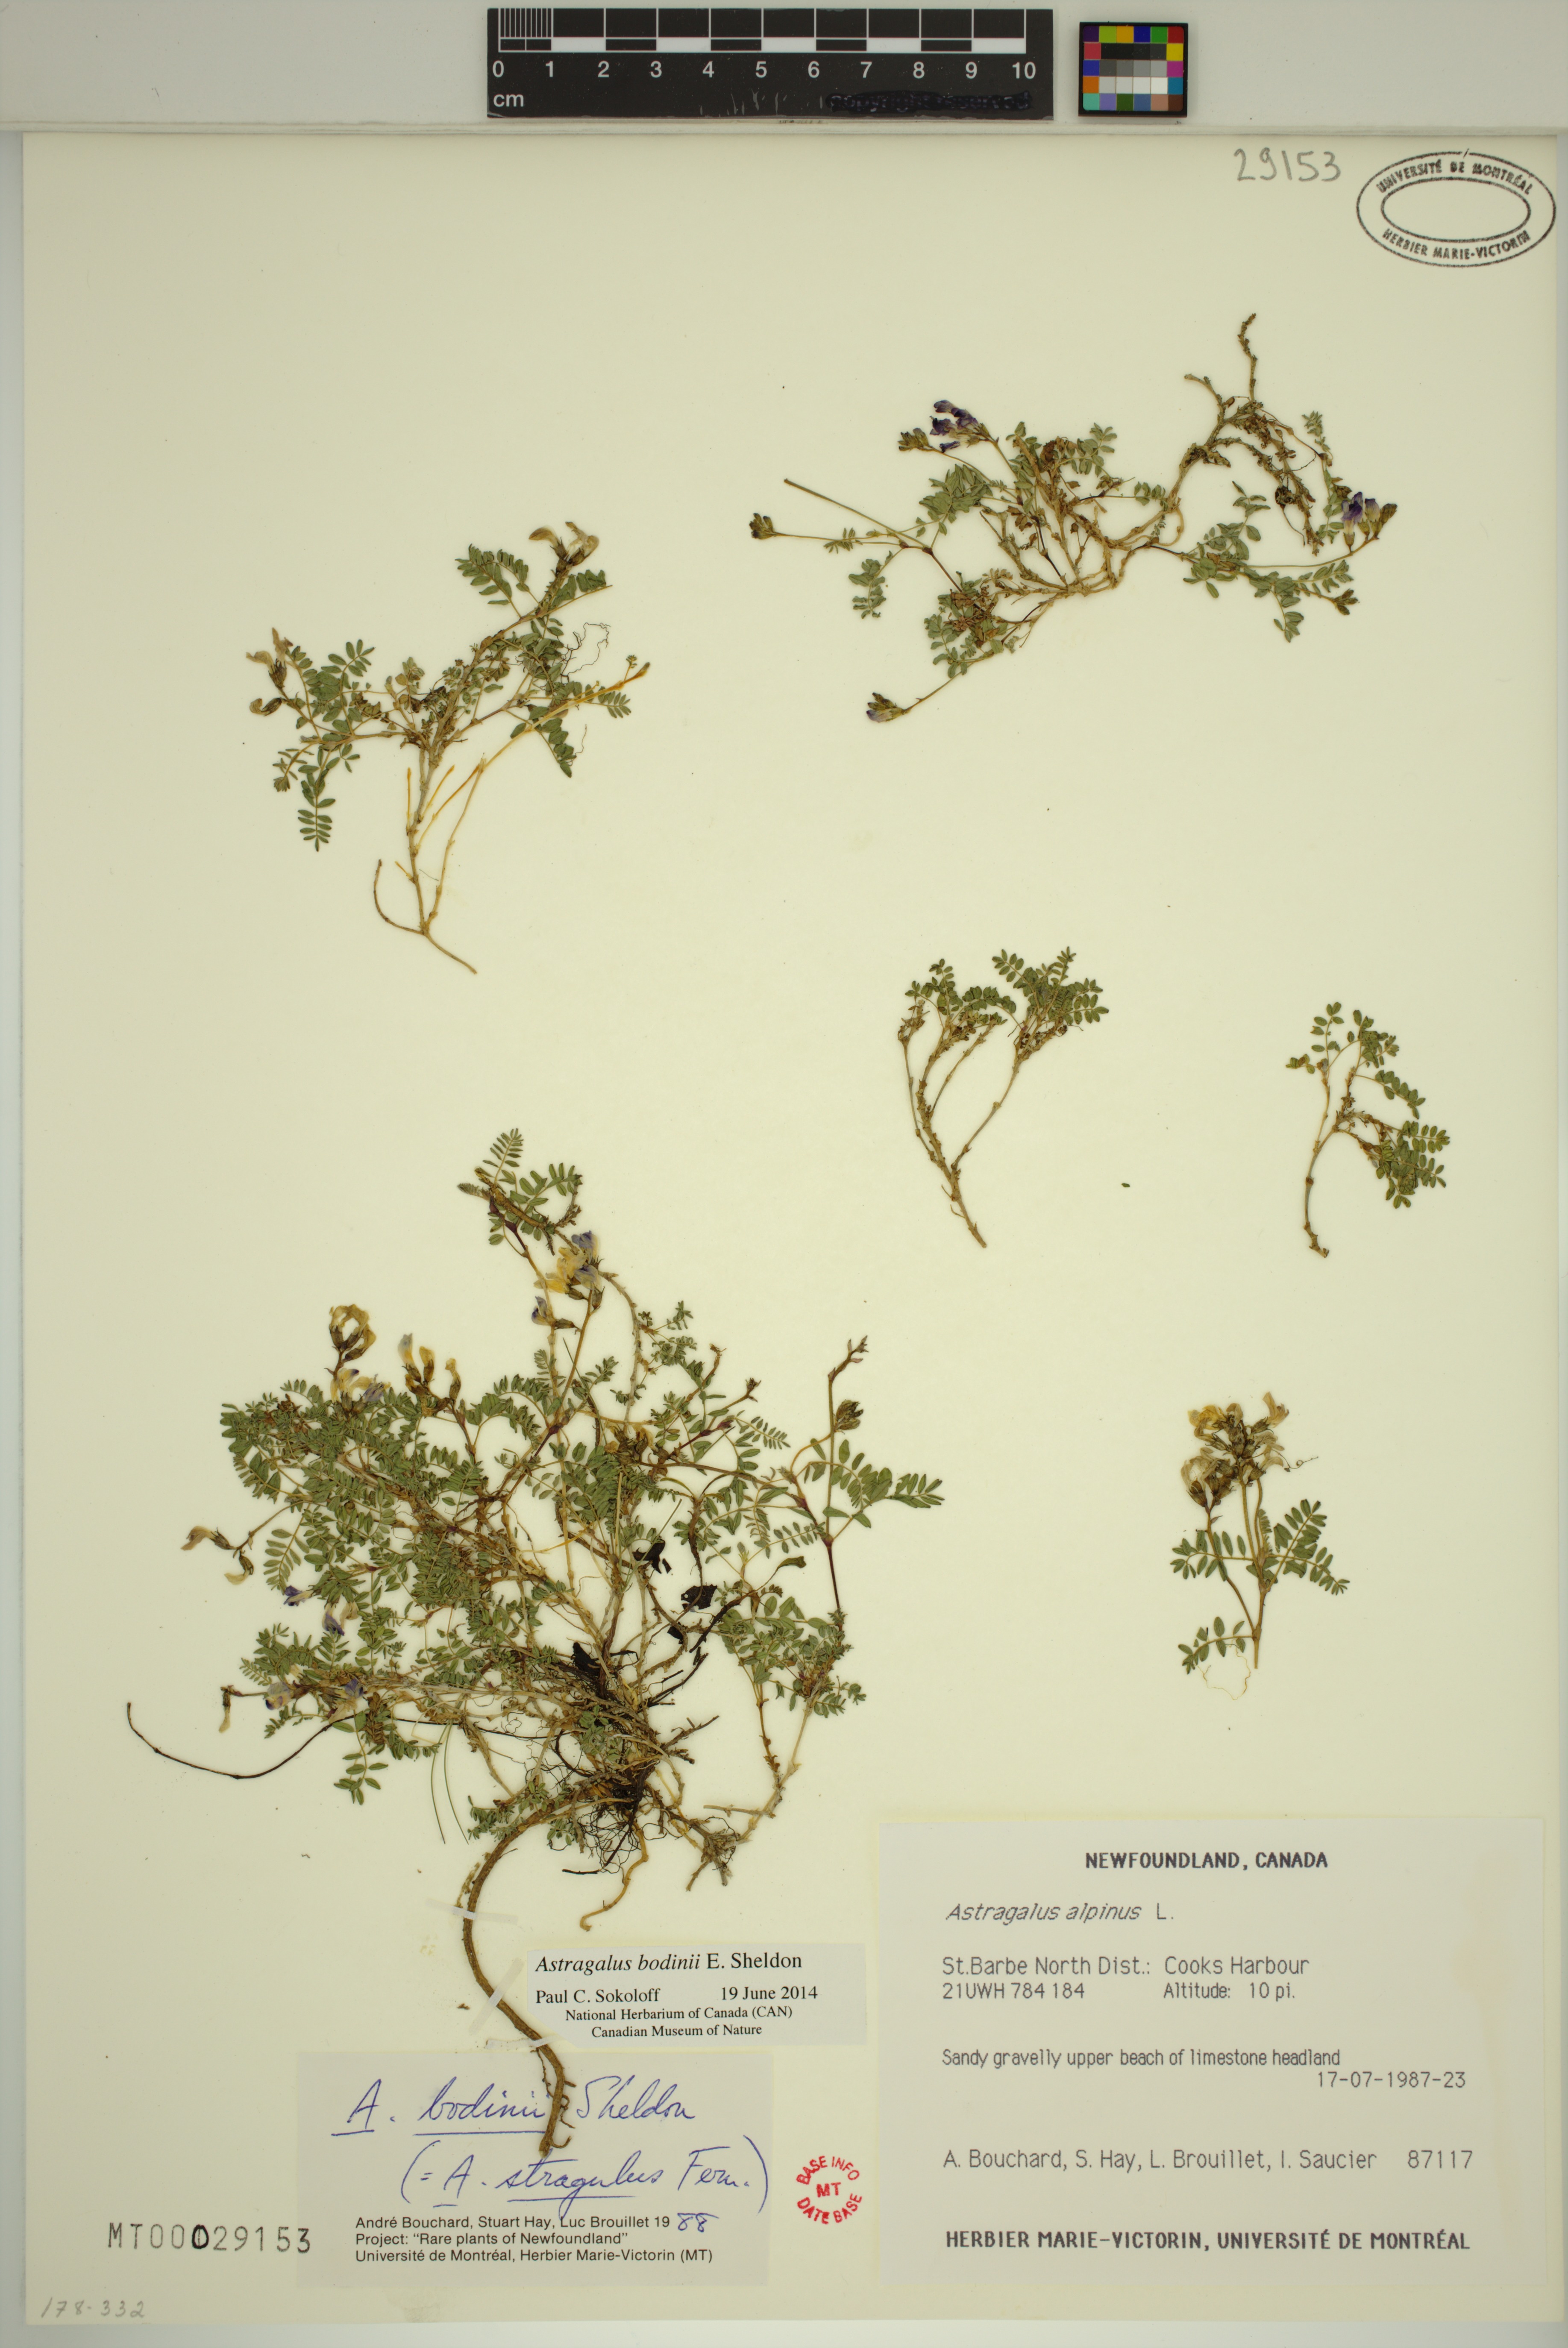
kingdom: Plantae
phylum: Tracheophyta
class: Magnoliopsida
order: Fabales
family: Fabaceae
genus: Astragalus
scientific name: Astragalus bodinii
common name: Bodin's milk-vetch
